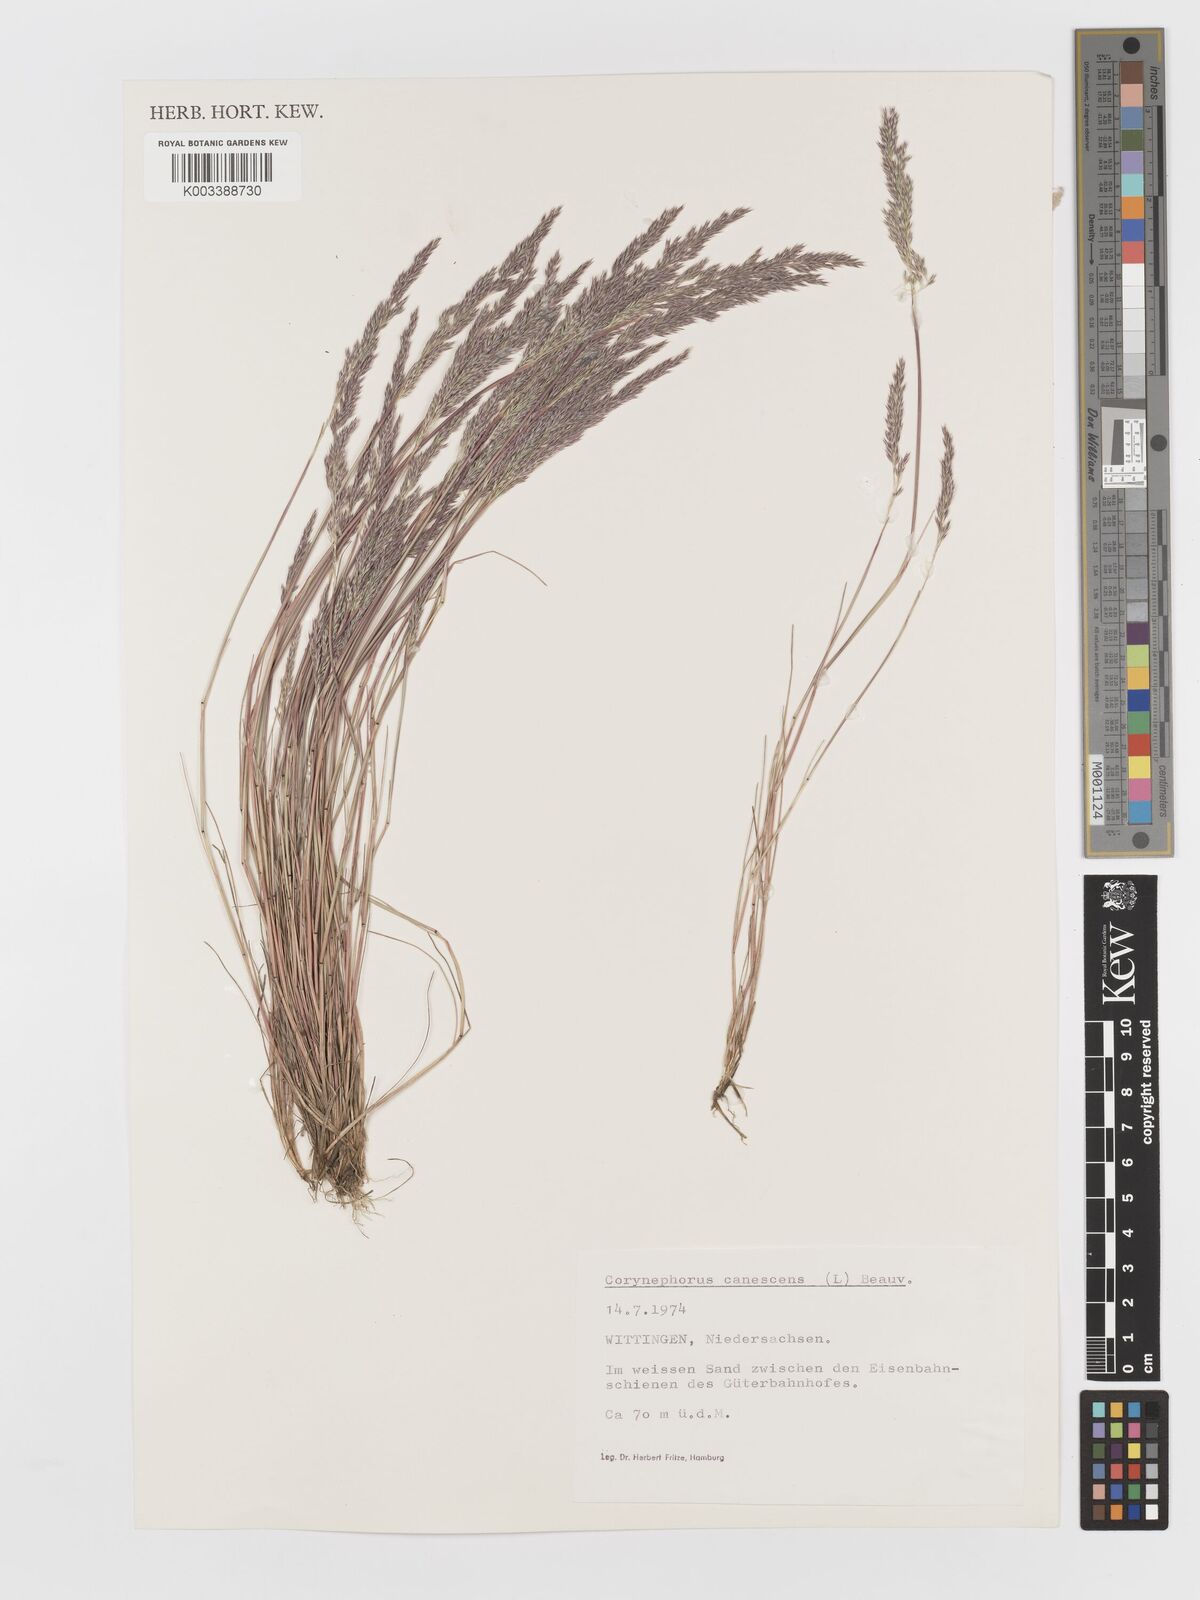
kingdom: Plantae
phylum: Tracheophyta
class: Liliopsida
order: Poales
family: Poaceae
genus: Corynephorus
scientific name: Corynephorus canescens
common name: Grey hair-grass
